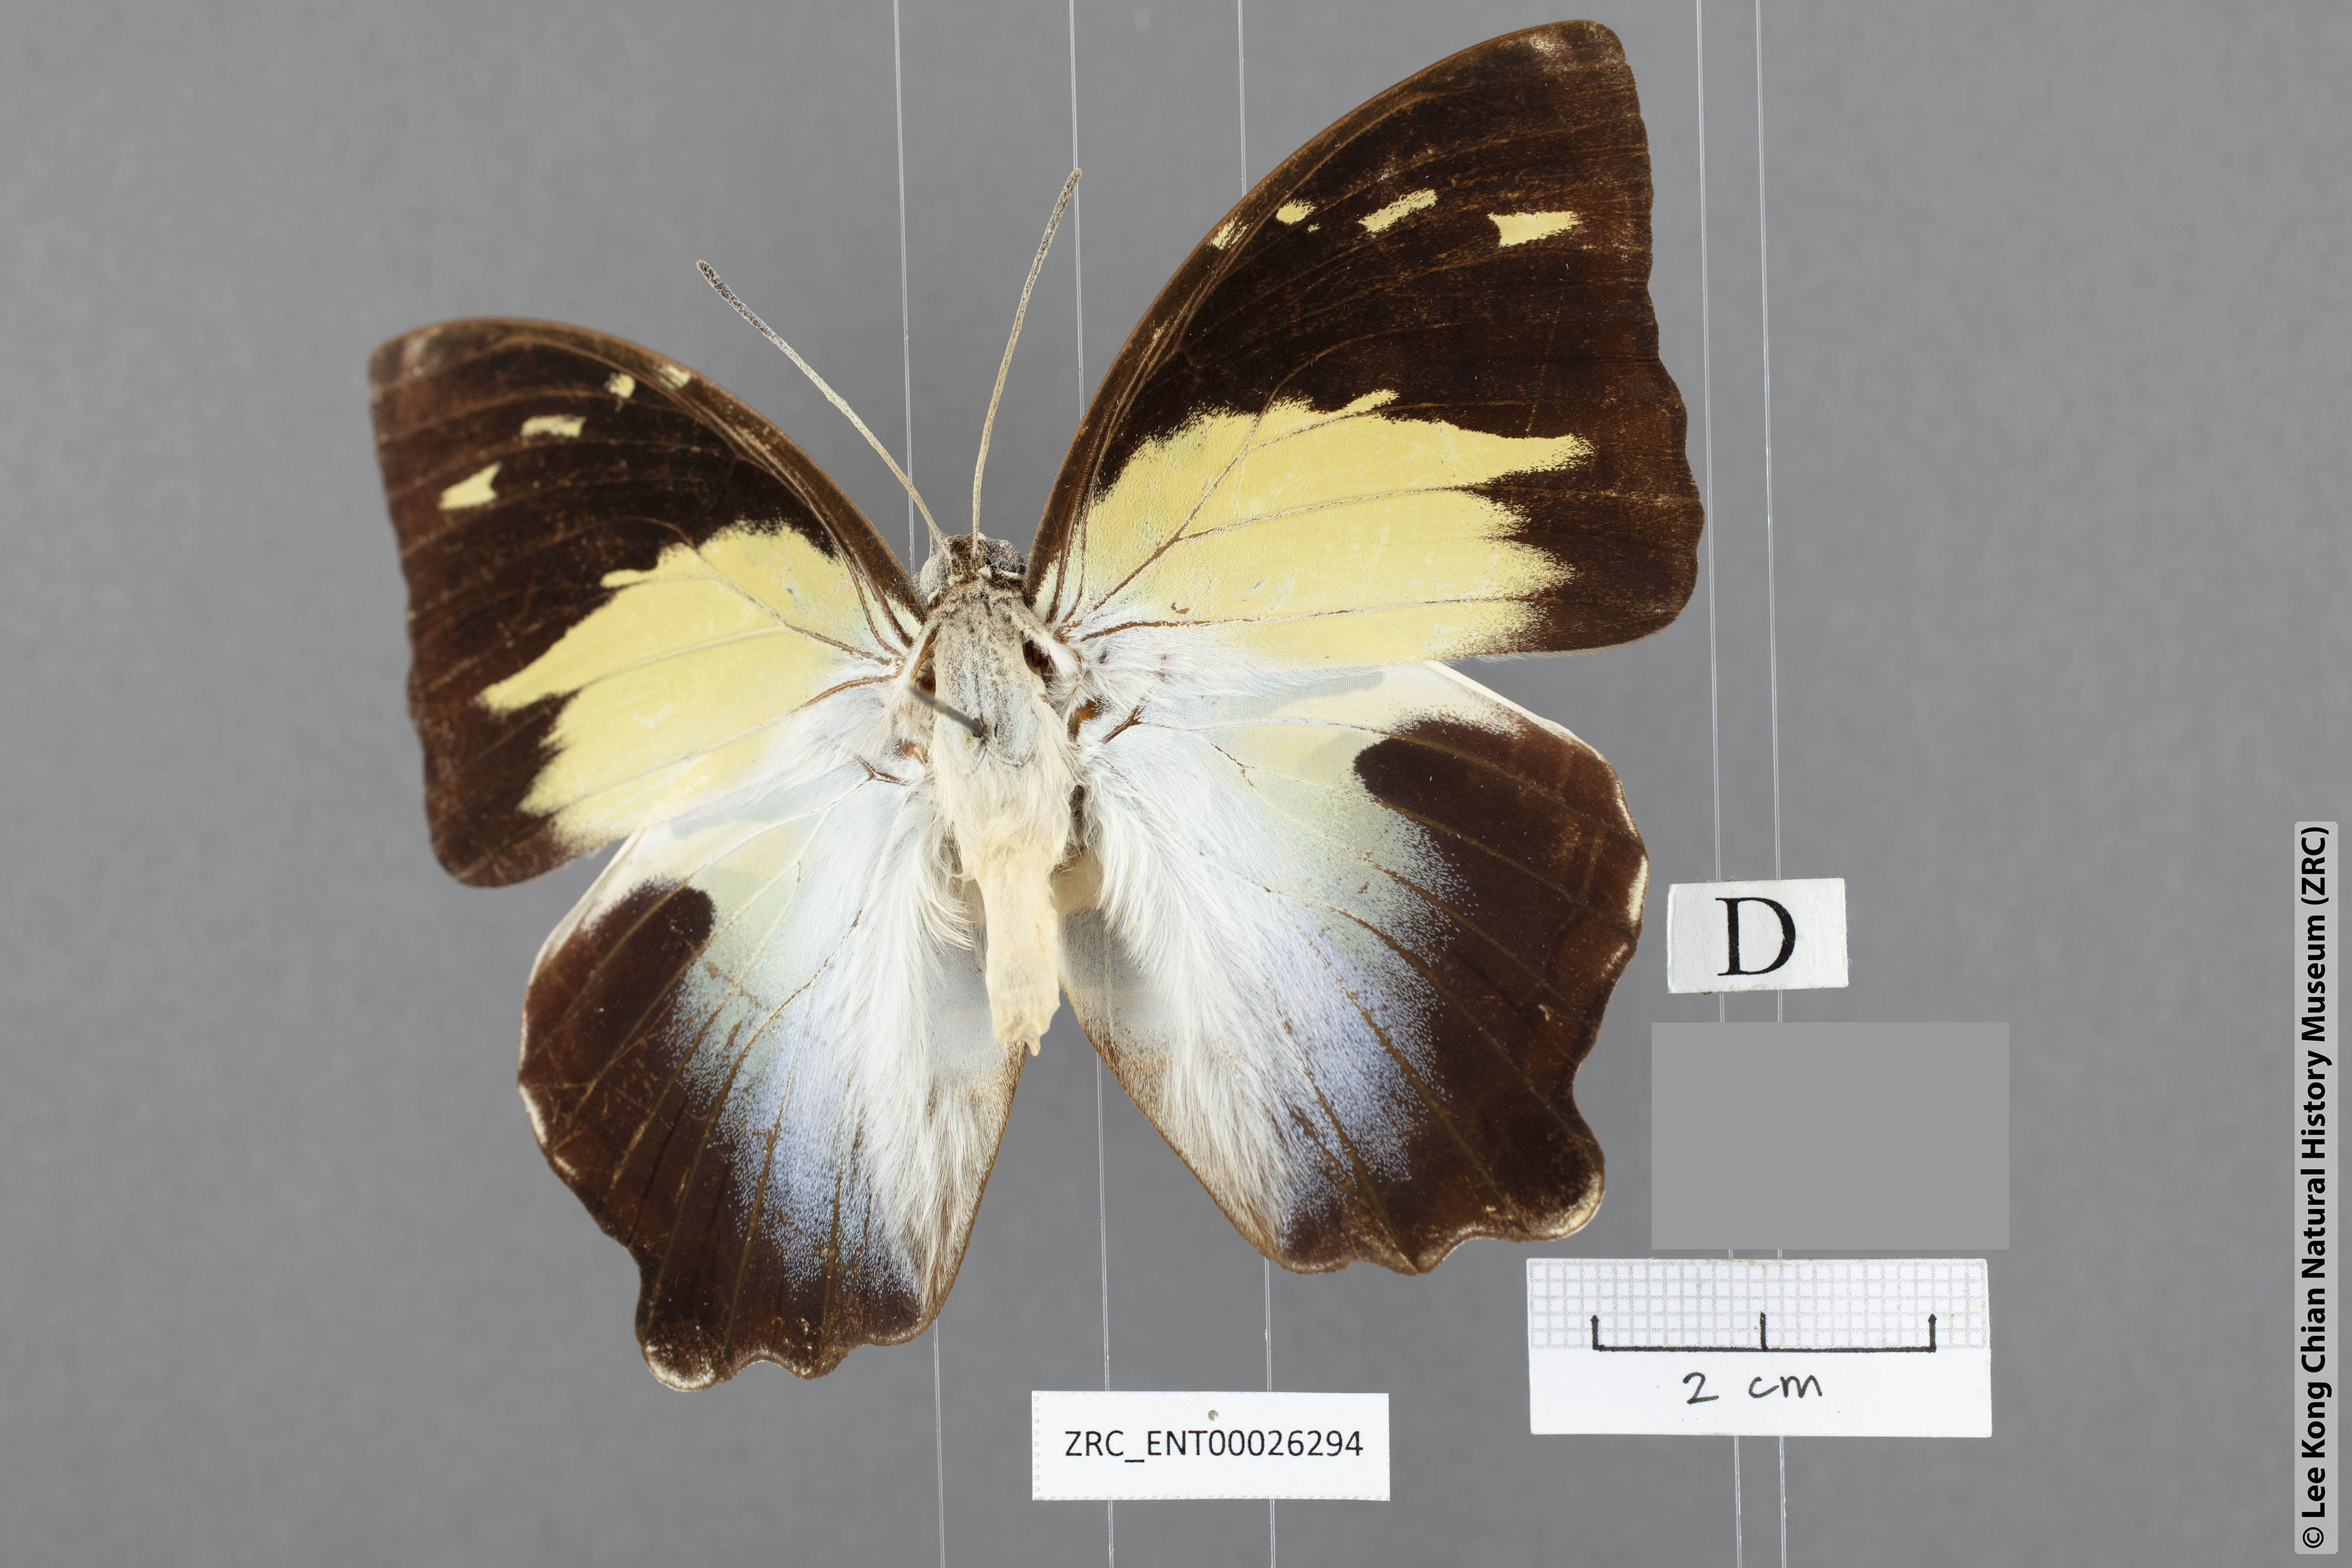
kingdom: Animalia
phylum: Arthropoda
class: Insecta
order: Lepidoptera
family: Nymphalidae
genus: Prothoe
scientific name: Prothoe Agatasa calydonia
